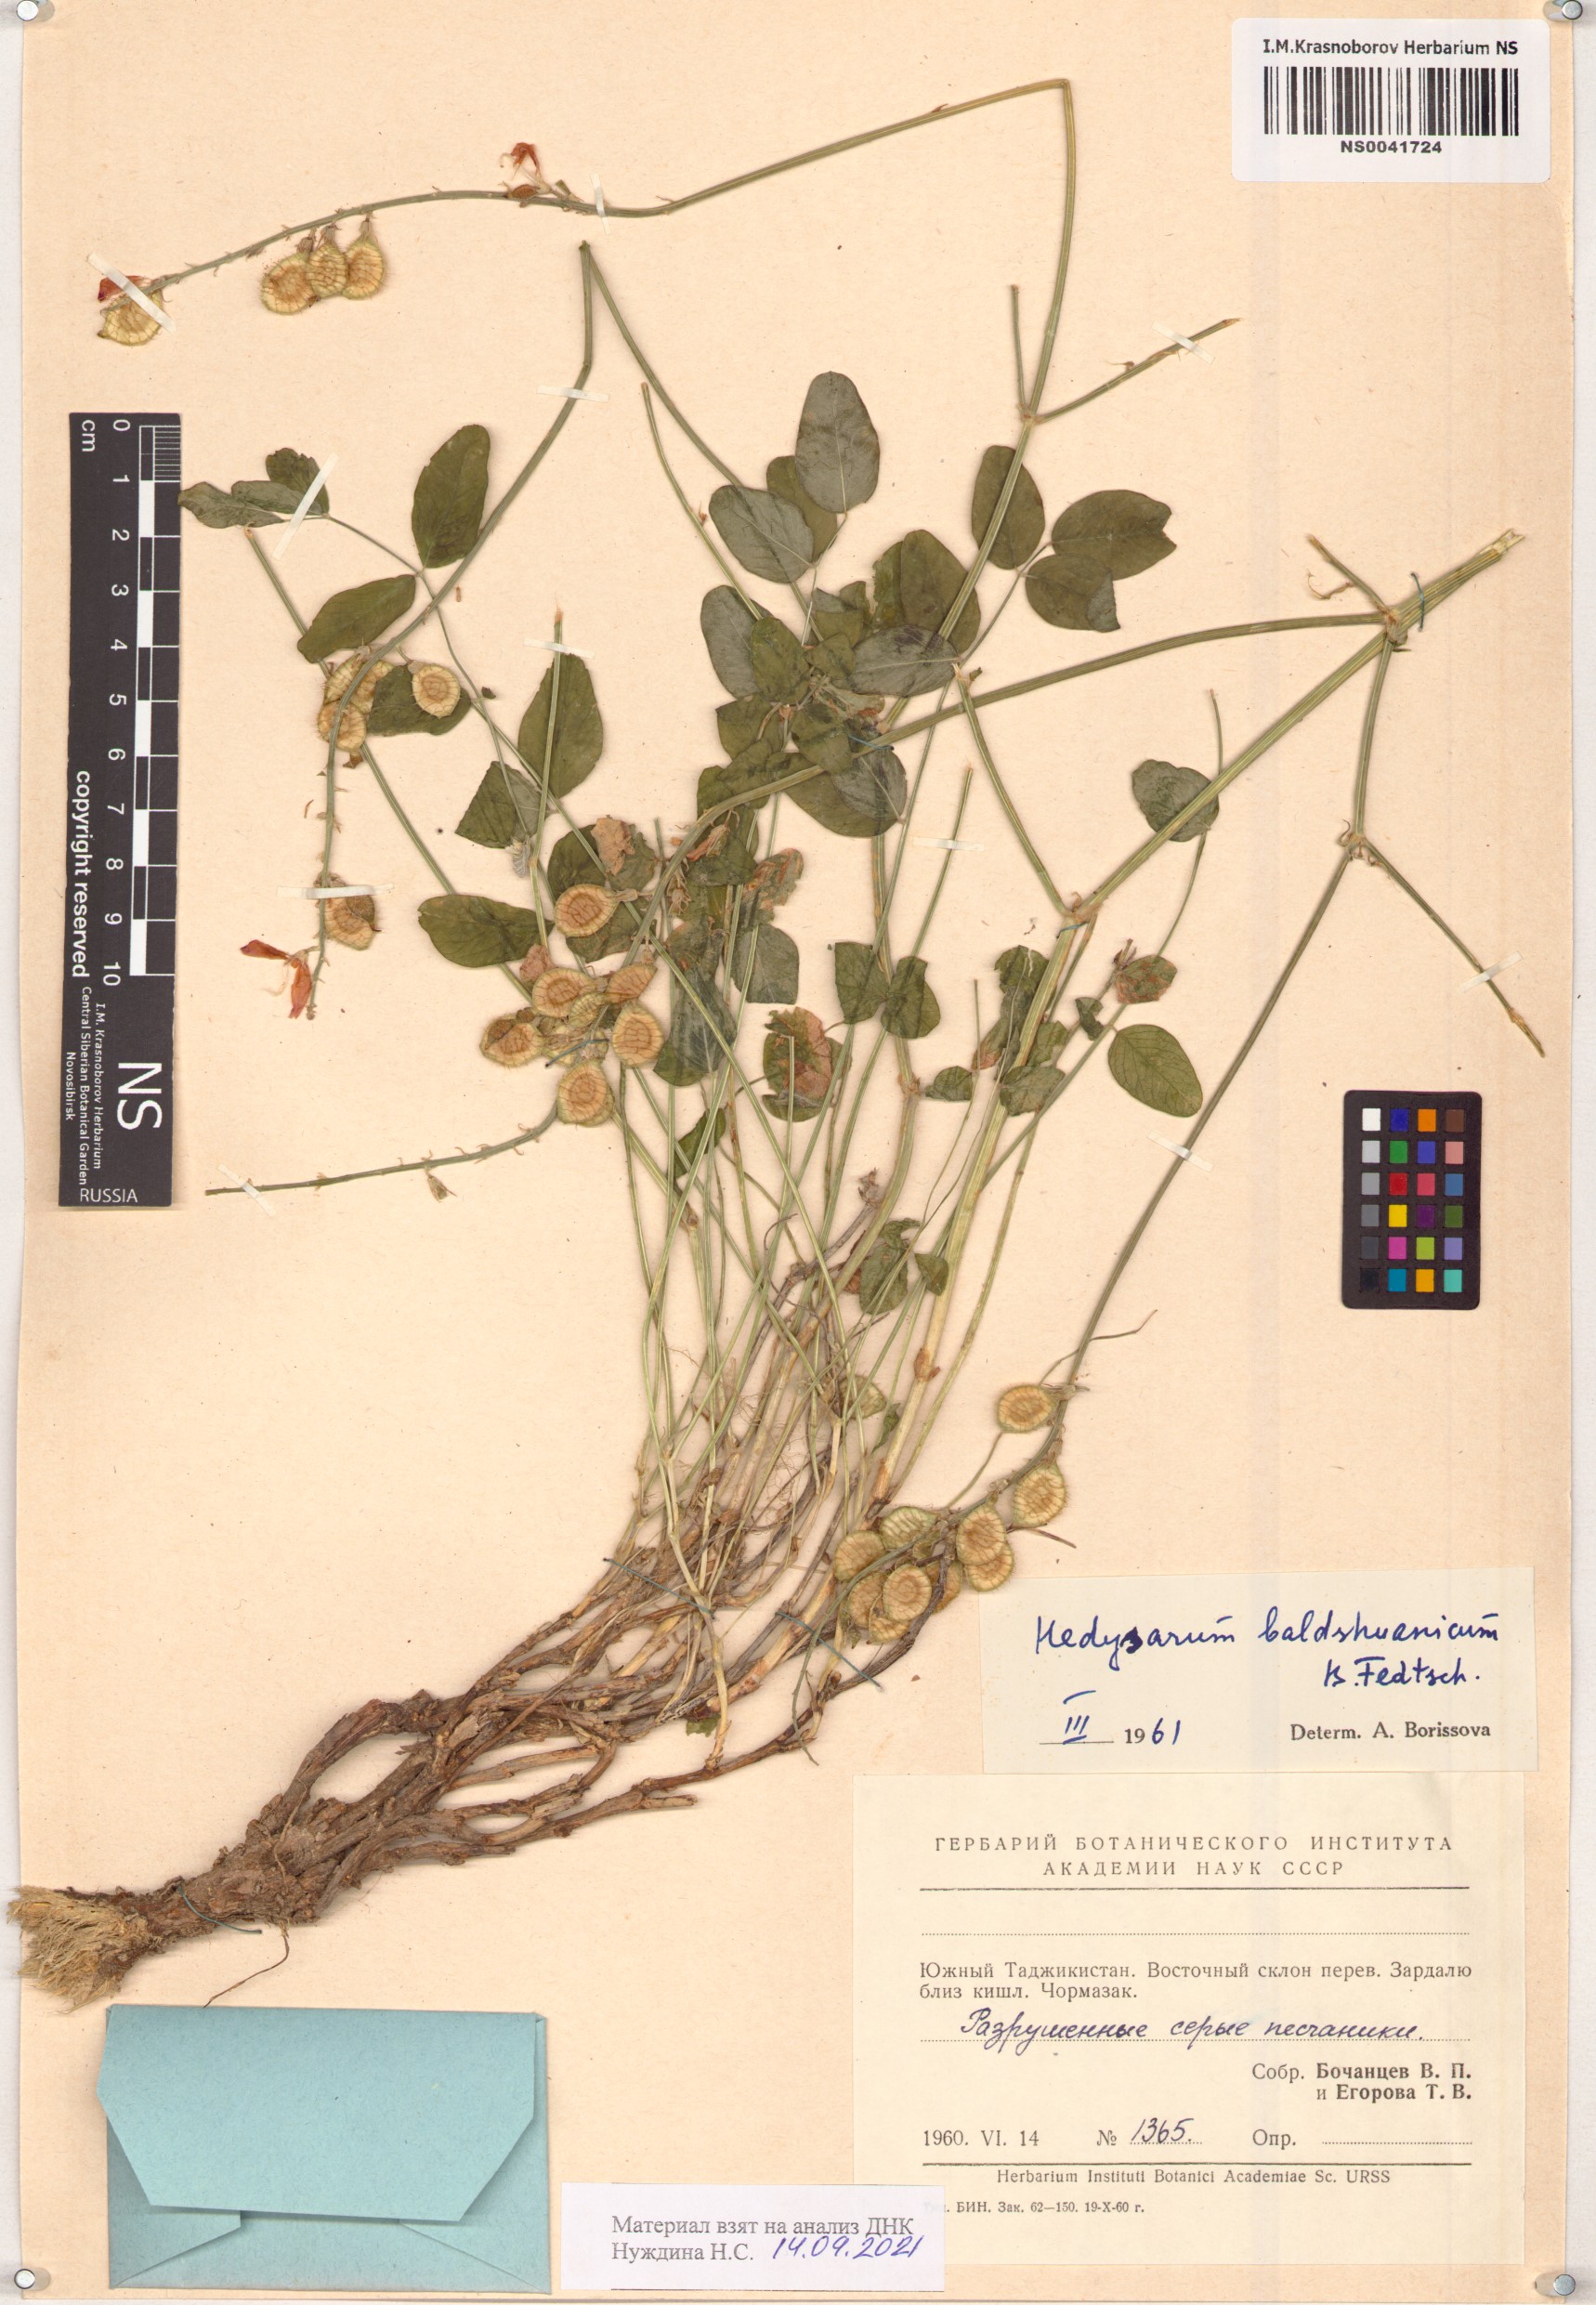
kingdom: Plantae
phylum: Tracheophyta
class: Magnoliopsida
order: Fabales
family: Fabaceae
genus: Hedysarum
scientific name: Hedysarum baldshuanicum
